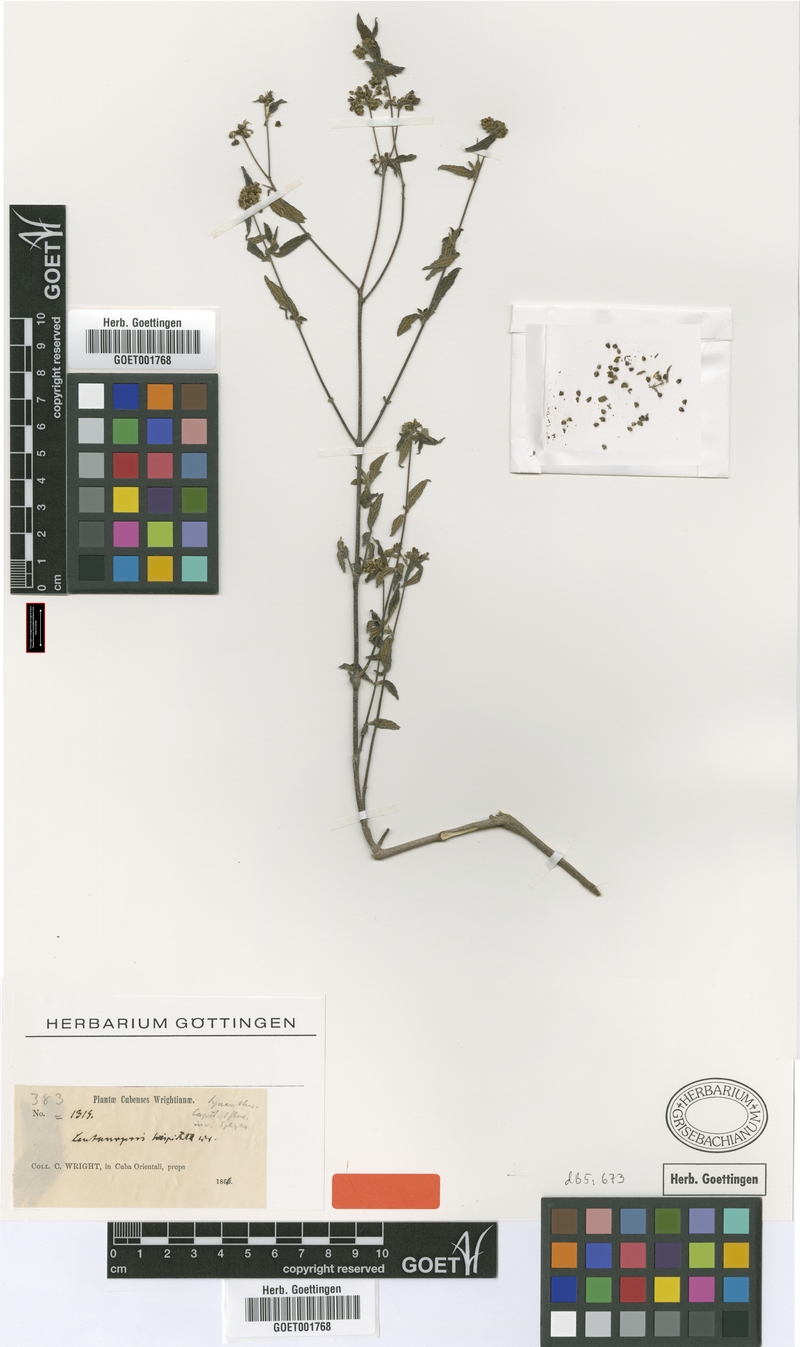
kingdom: Plantae
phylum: Tracheophyta
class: Magnoliopsida
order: Asterales
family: Asteraceae
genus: Lantanopsis
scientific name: Lantanopsis hispidula
